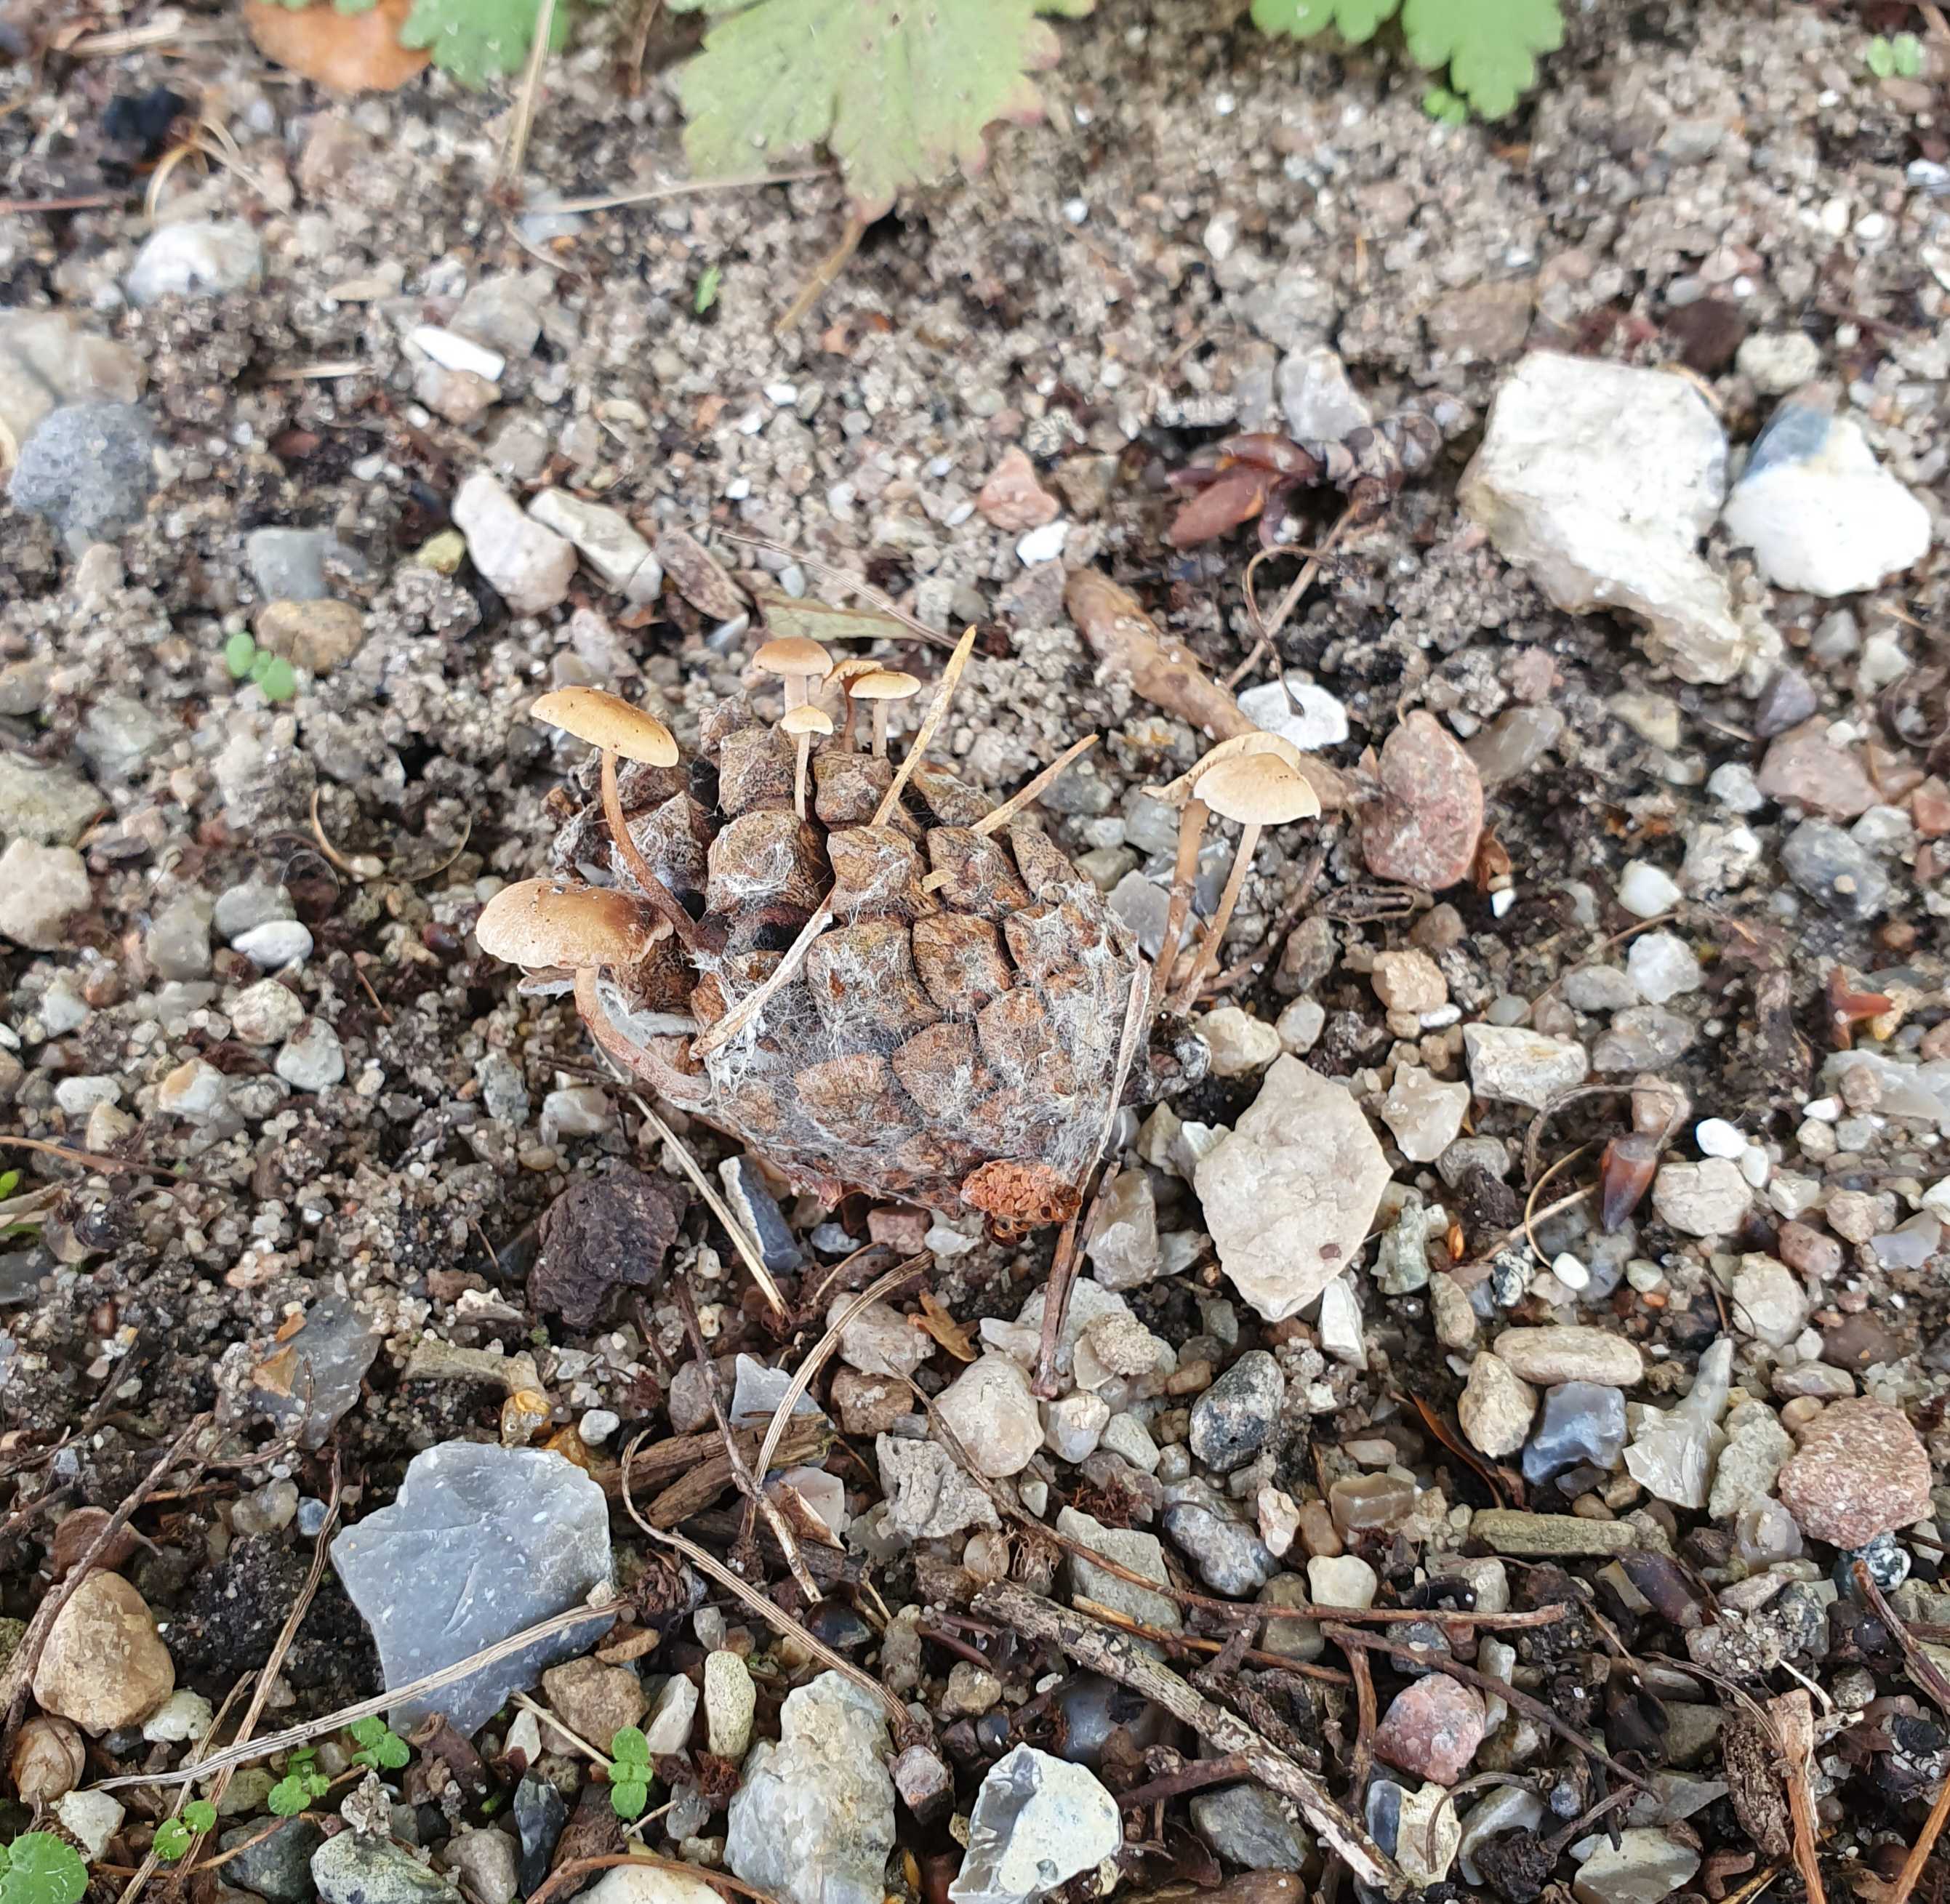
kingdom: Fungi
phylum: Basidiomycota
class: Agaricomycetes
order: Agaricales
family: Marasmiaceae
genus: Baeospora
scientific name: Baeospora myosura
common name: koglebruskhat
